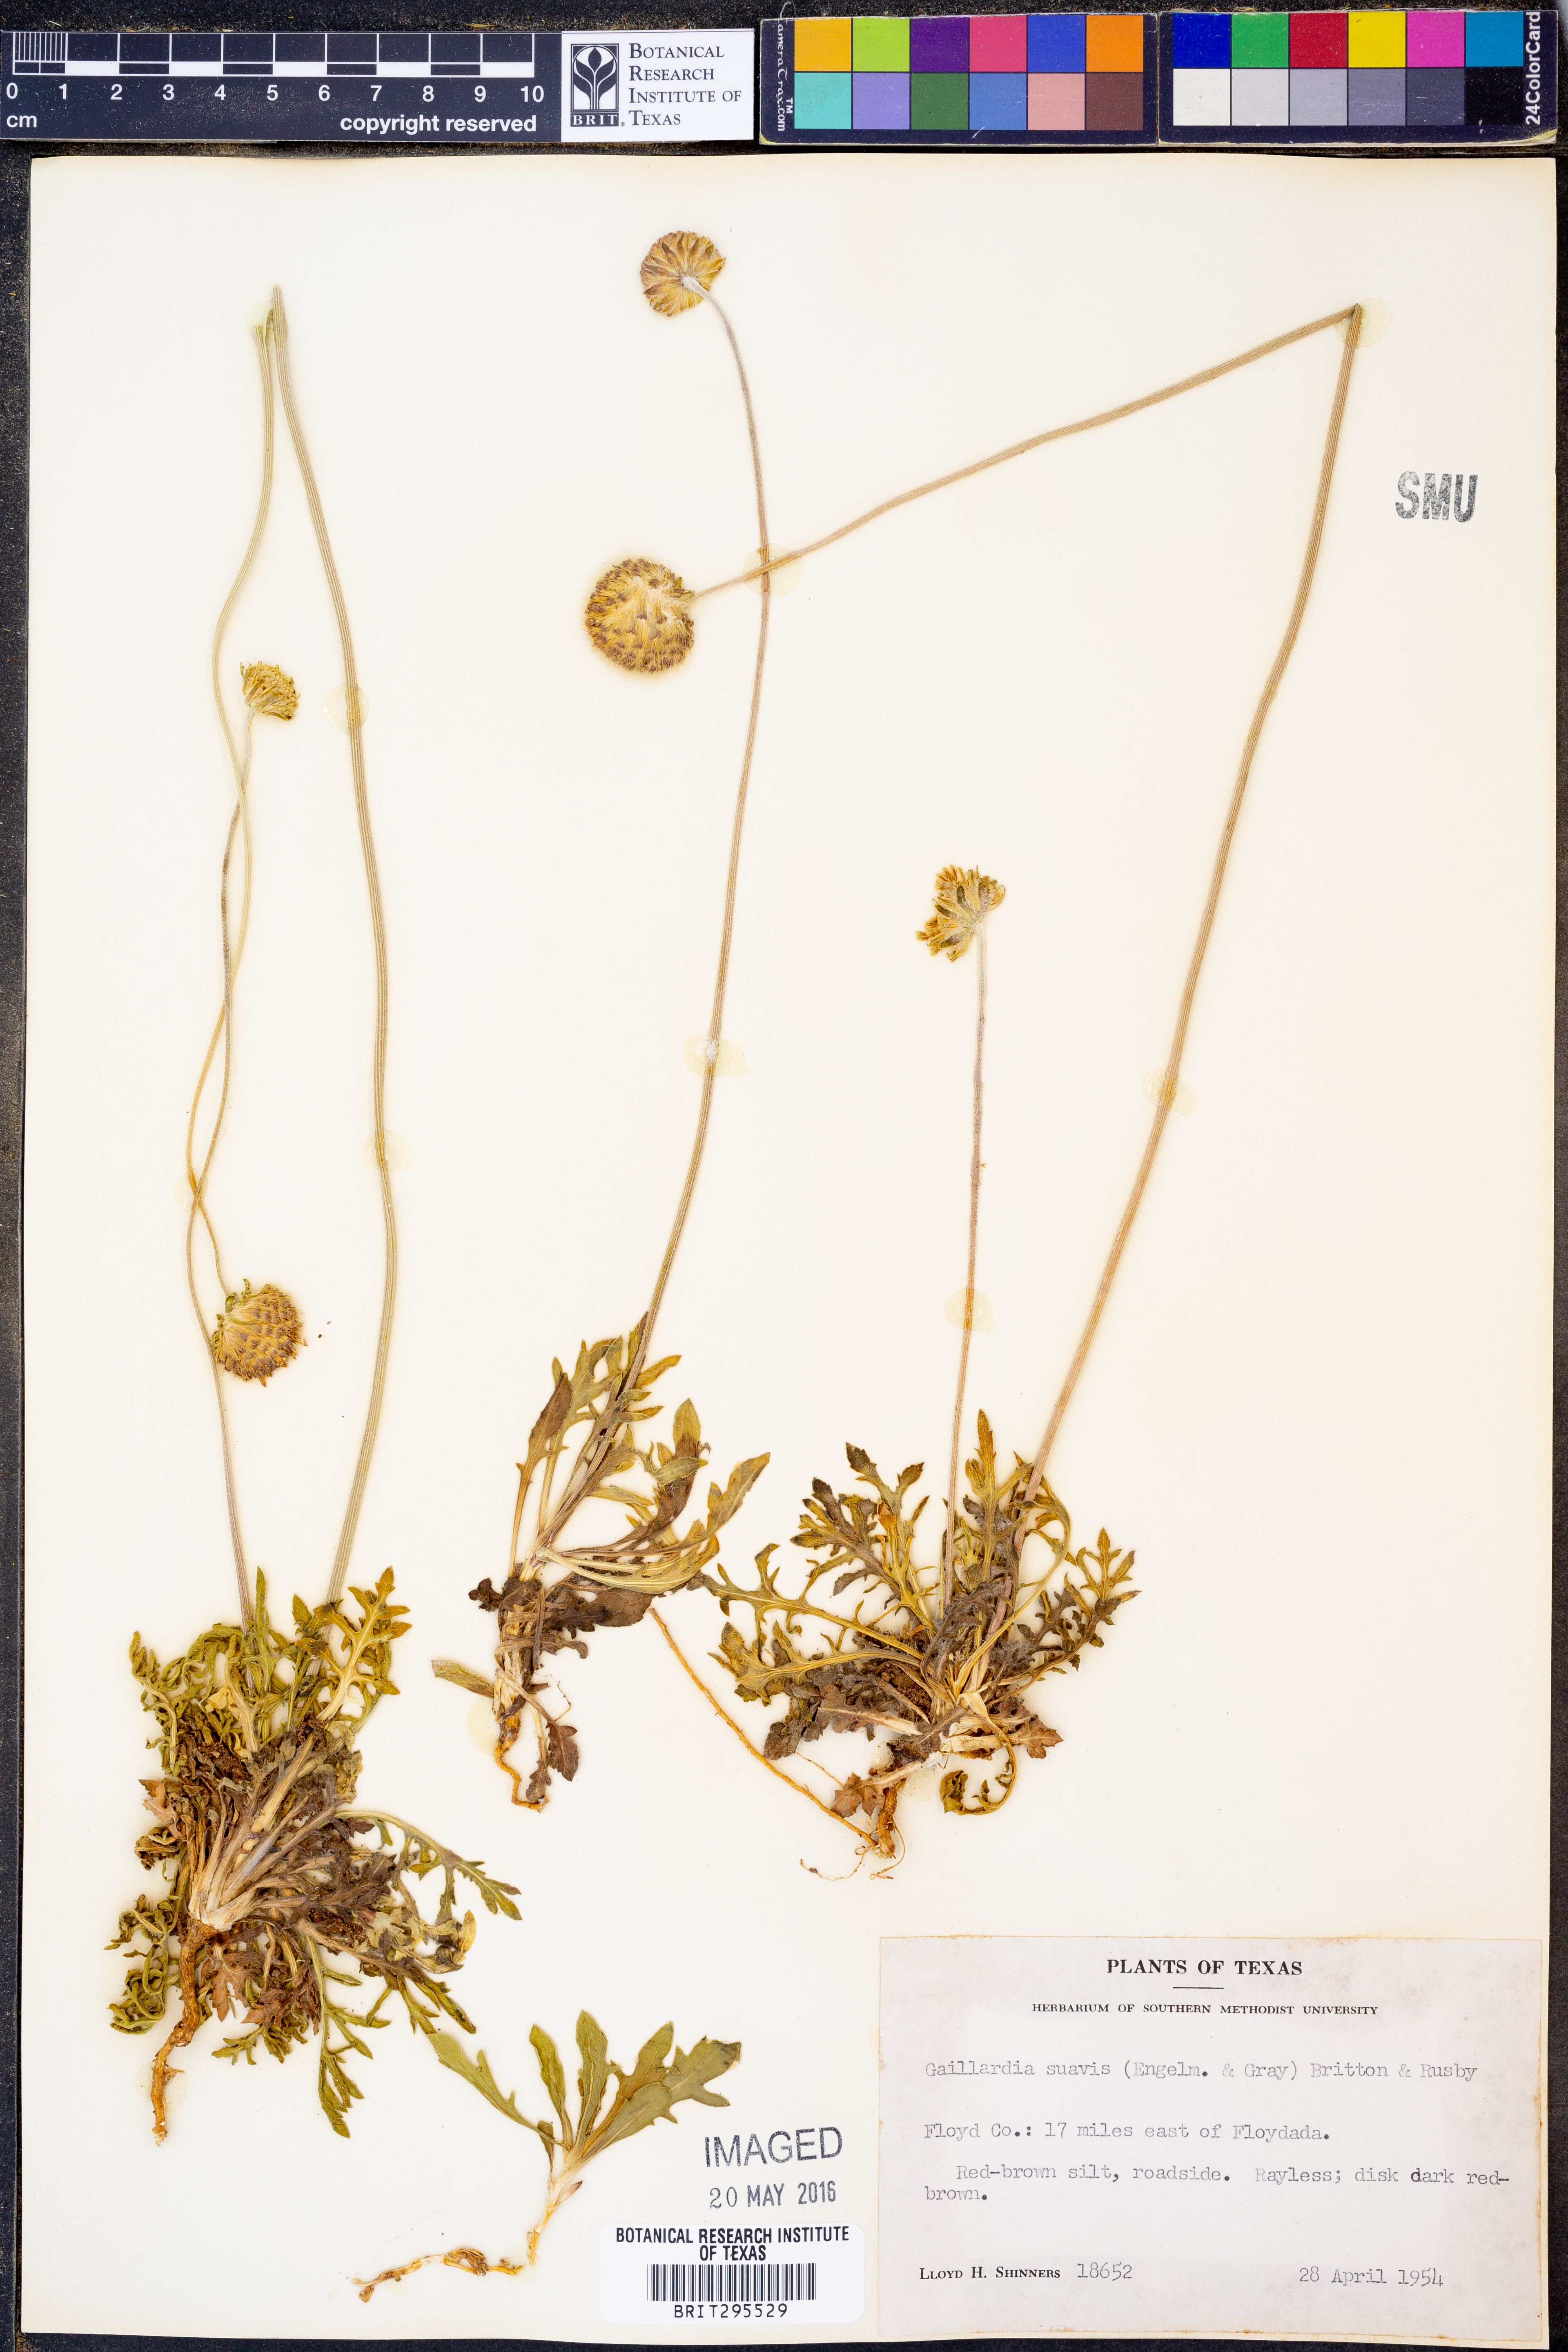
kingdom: Plantae
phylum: Tracheophyta
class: Magnoliopsida
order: Asterales
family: Asteraceae
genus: Gaillardia
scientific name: Gaillardia suavis
